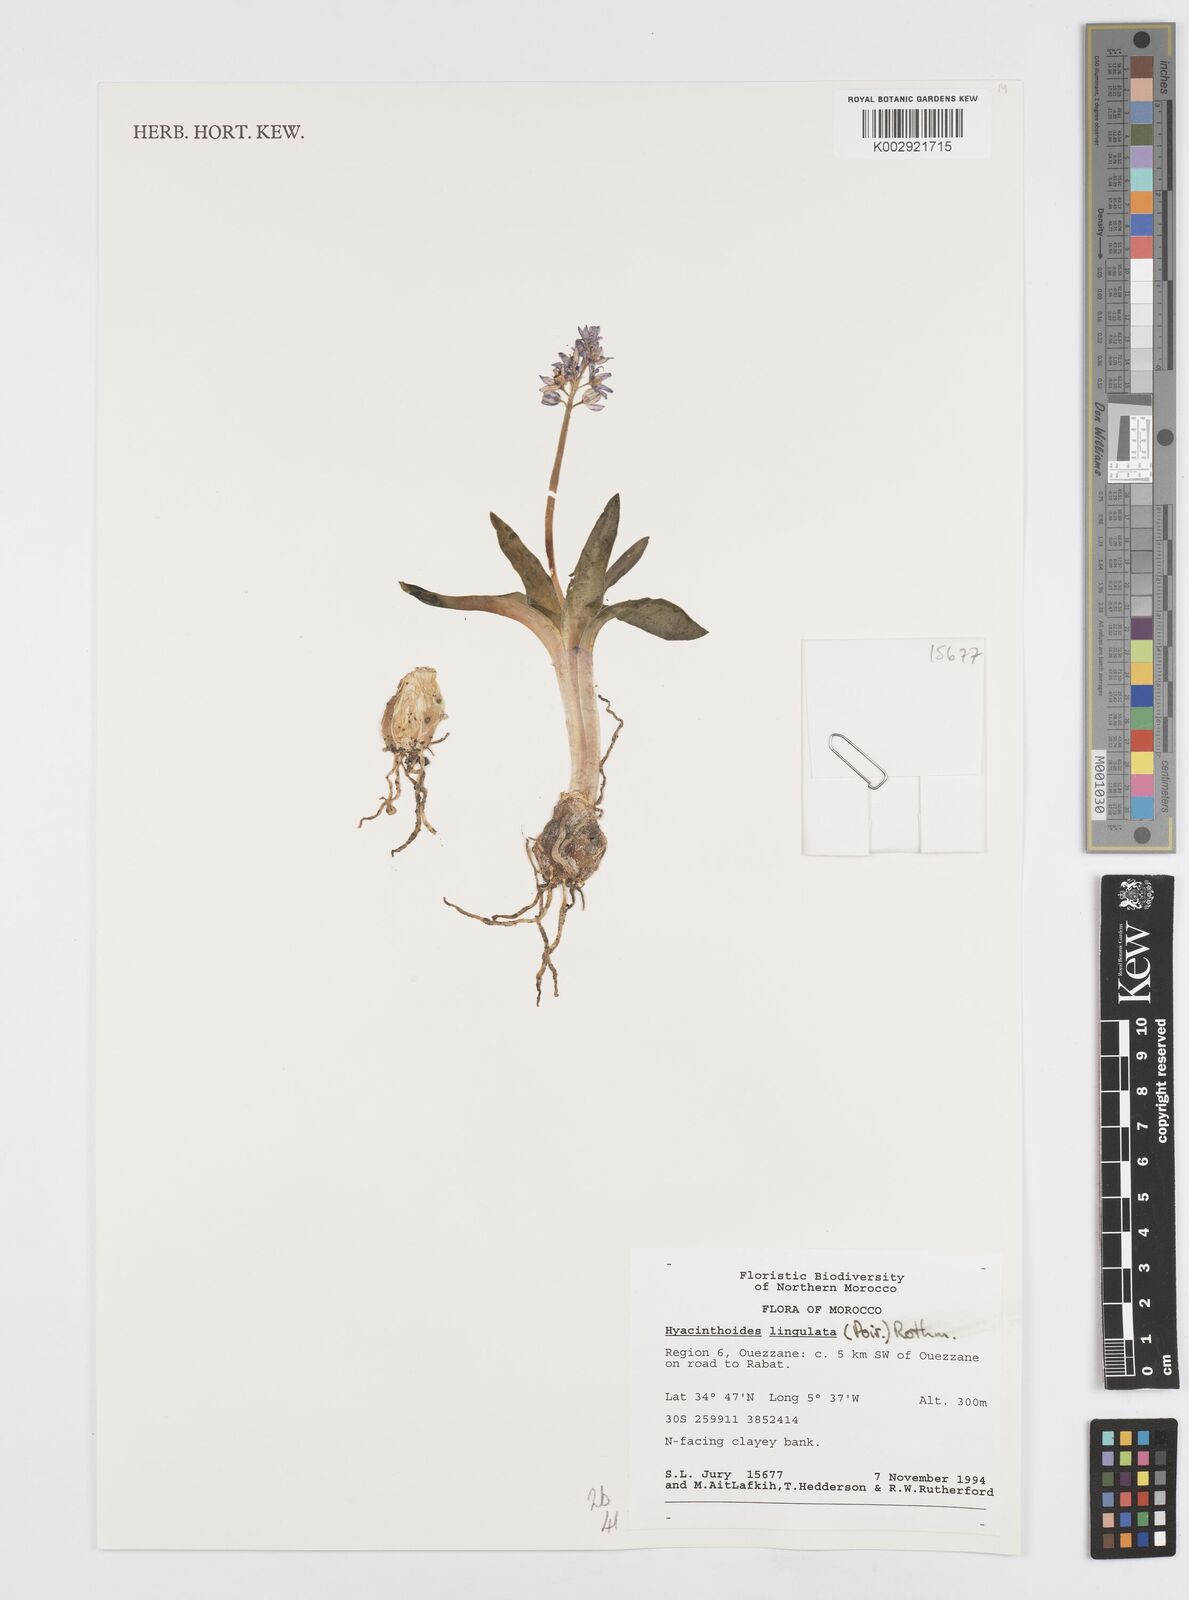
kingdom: Plantae
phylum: Tracheophyta
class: Liliopsida
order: Asparagales
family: Asparagaceae
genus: Hyacinthoides
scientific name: Hyacinthoides lingulata
